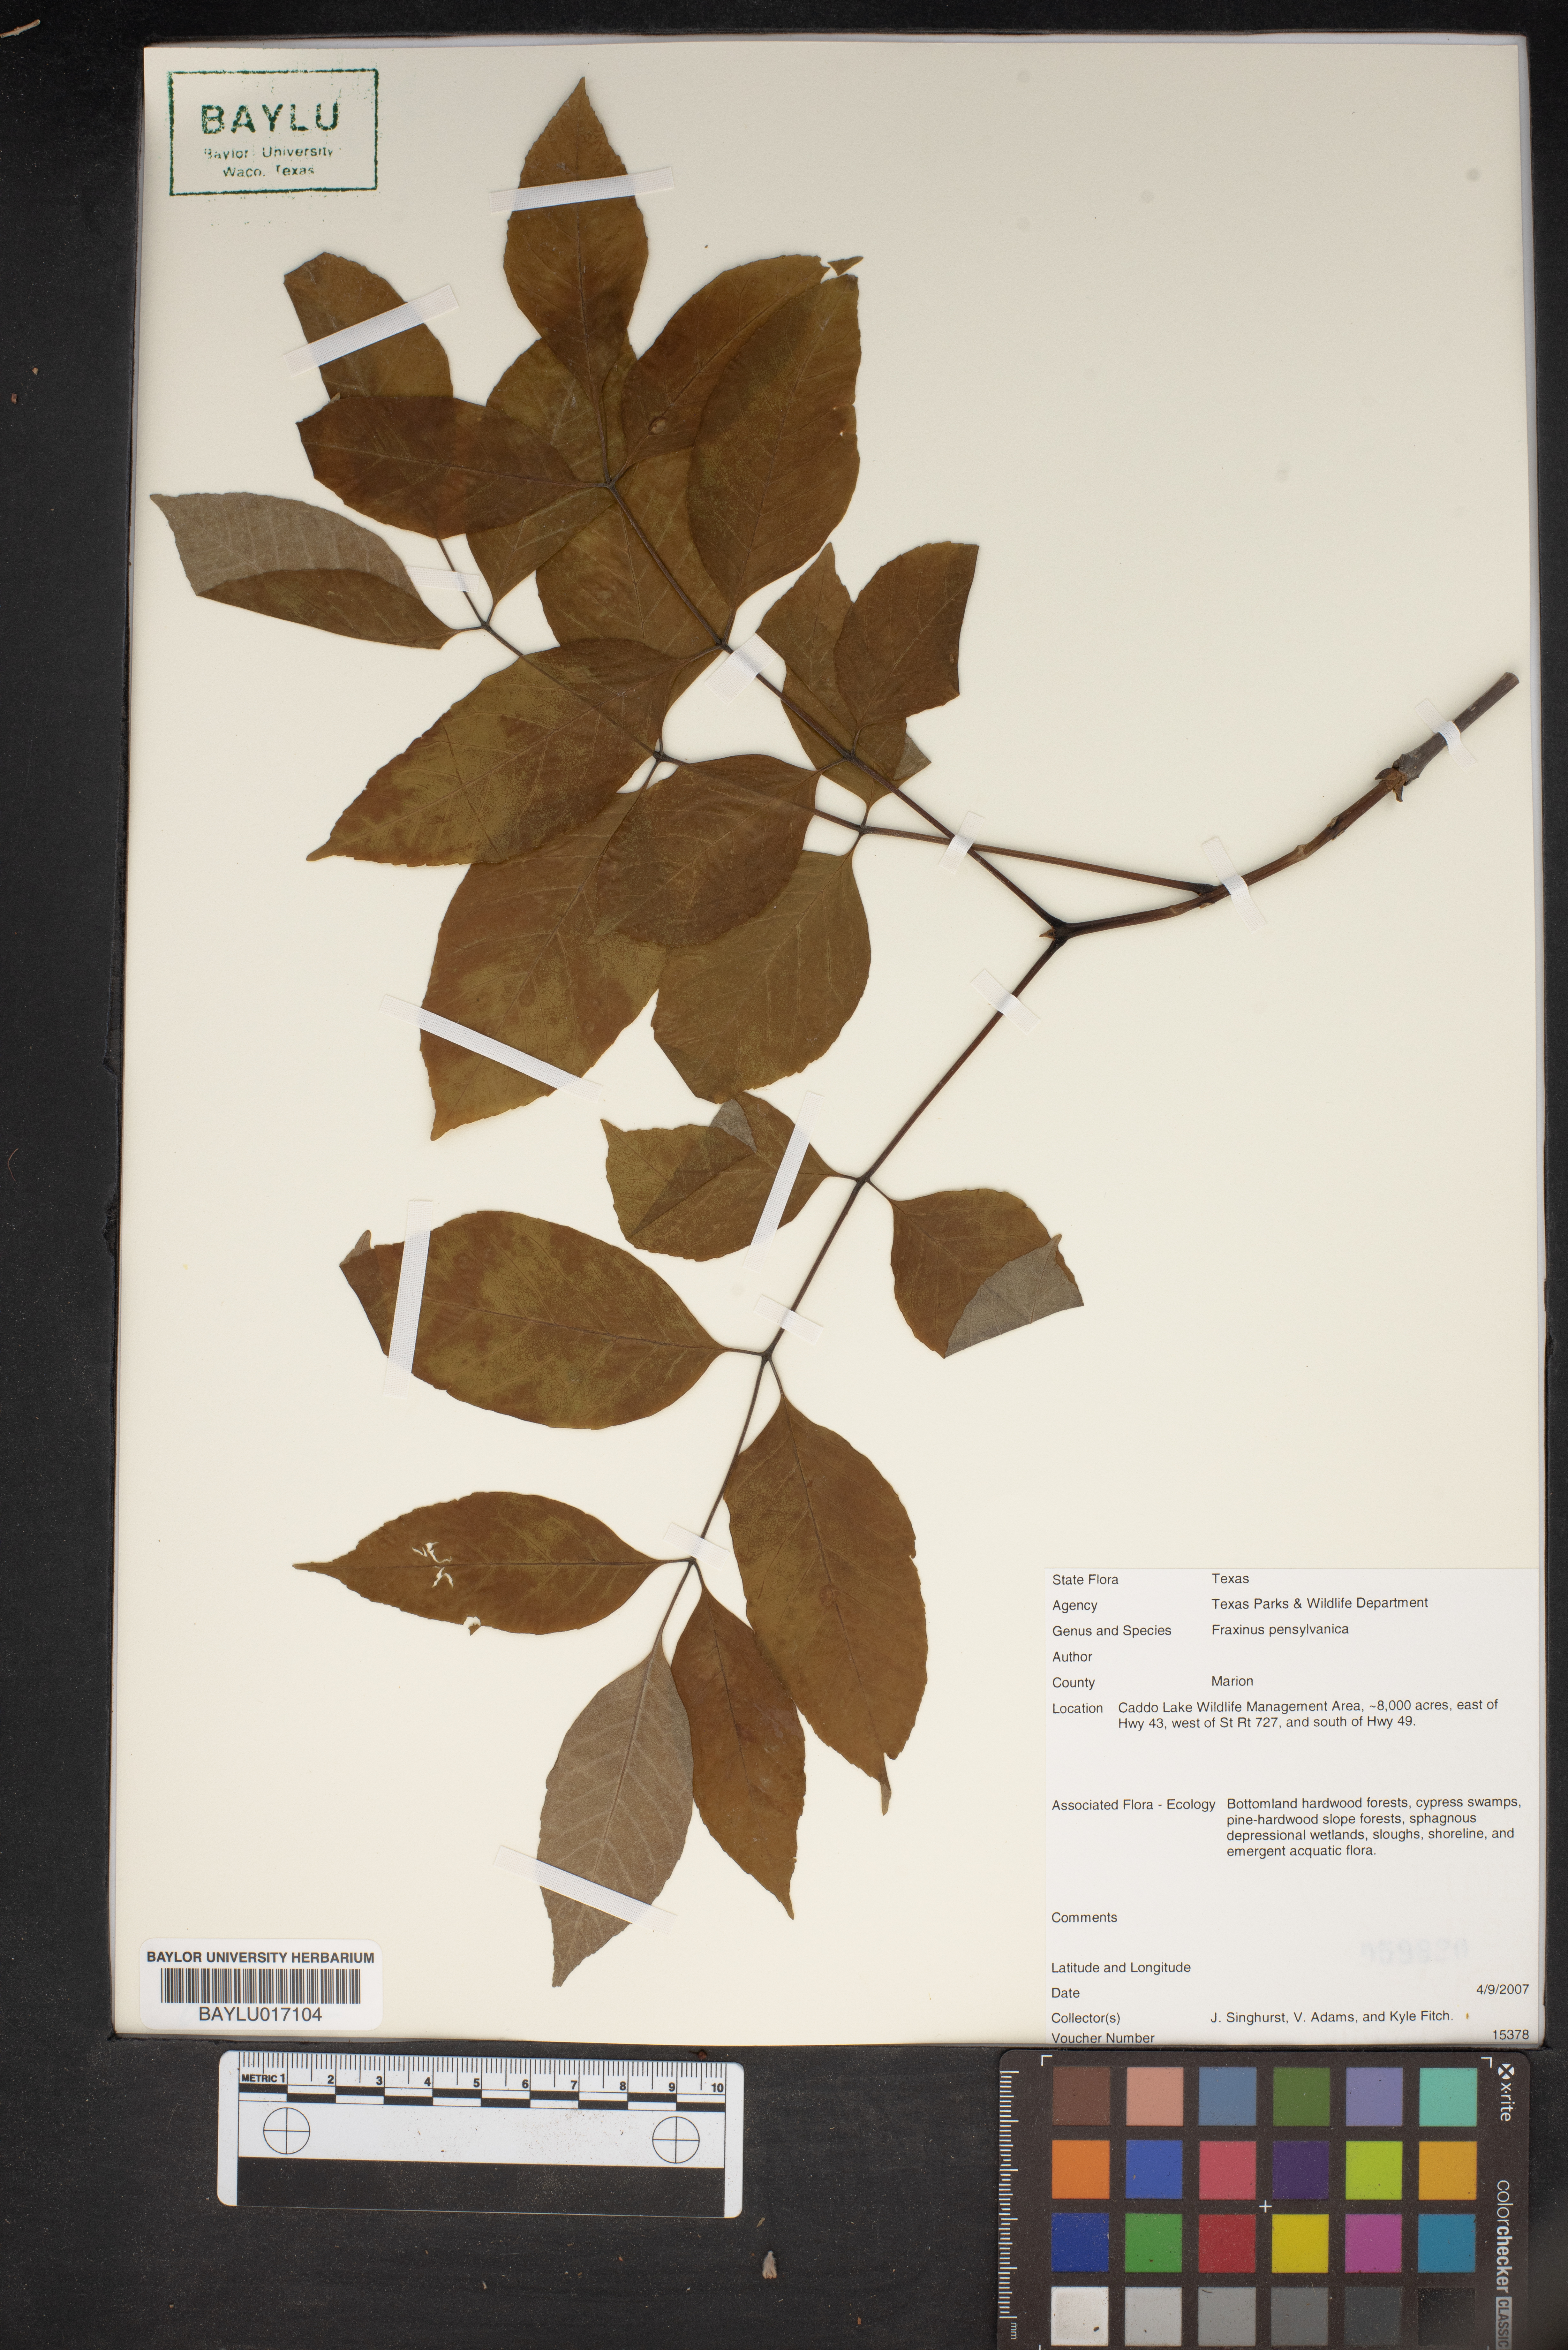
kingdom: Plantae
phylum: Tracheophyta
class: Magnoliopsida
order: Lamiales
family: Oleaceae
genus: Fraxinus
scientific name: Fraxinus pennsylvanica
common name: Green ash
